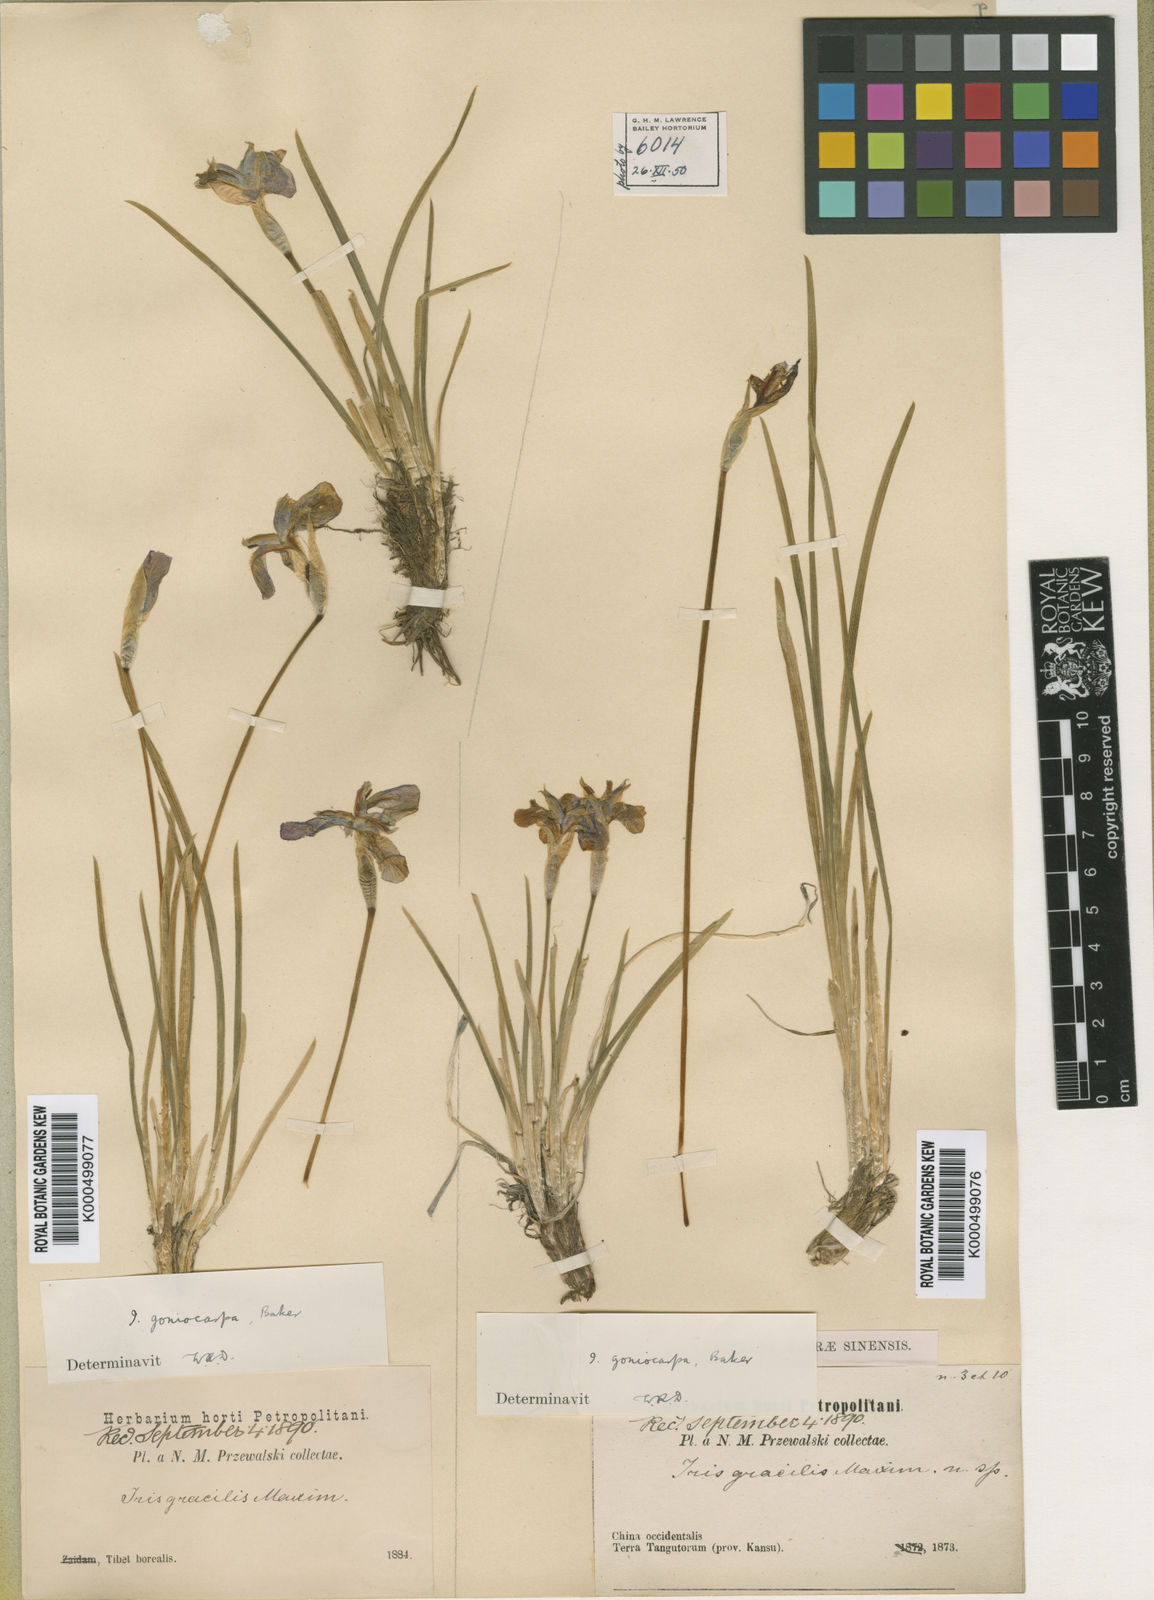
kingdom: Plantae
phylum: Tracheophyta
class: Liliopsida
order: Asparagales
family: Iridaceae
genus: Iris
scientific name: Iris goniocarpa
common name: Angular-fruit iris
